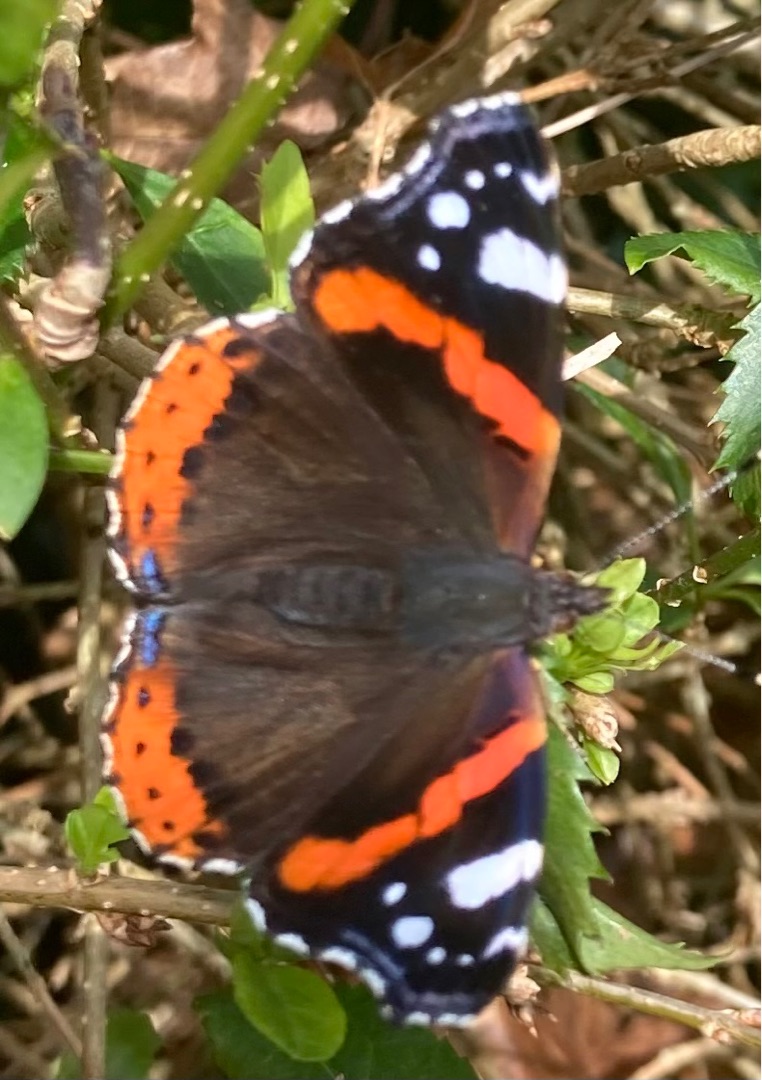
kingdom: Animalia
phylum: Arthropoda
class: Insecta
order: Lepidoptera
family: Nymphalidae
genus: Vanessa
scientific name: Vanessa atalanta
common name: Admiral
